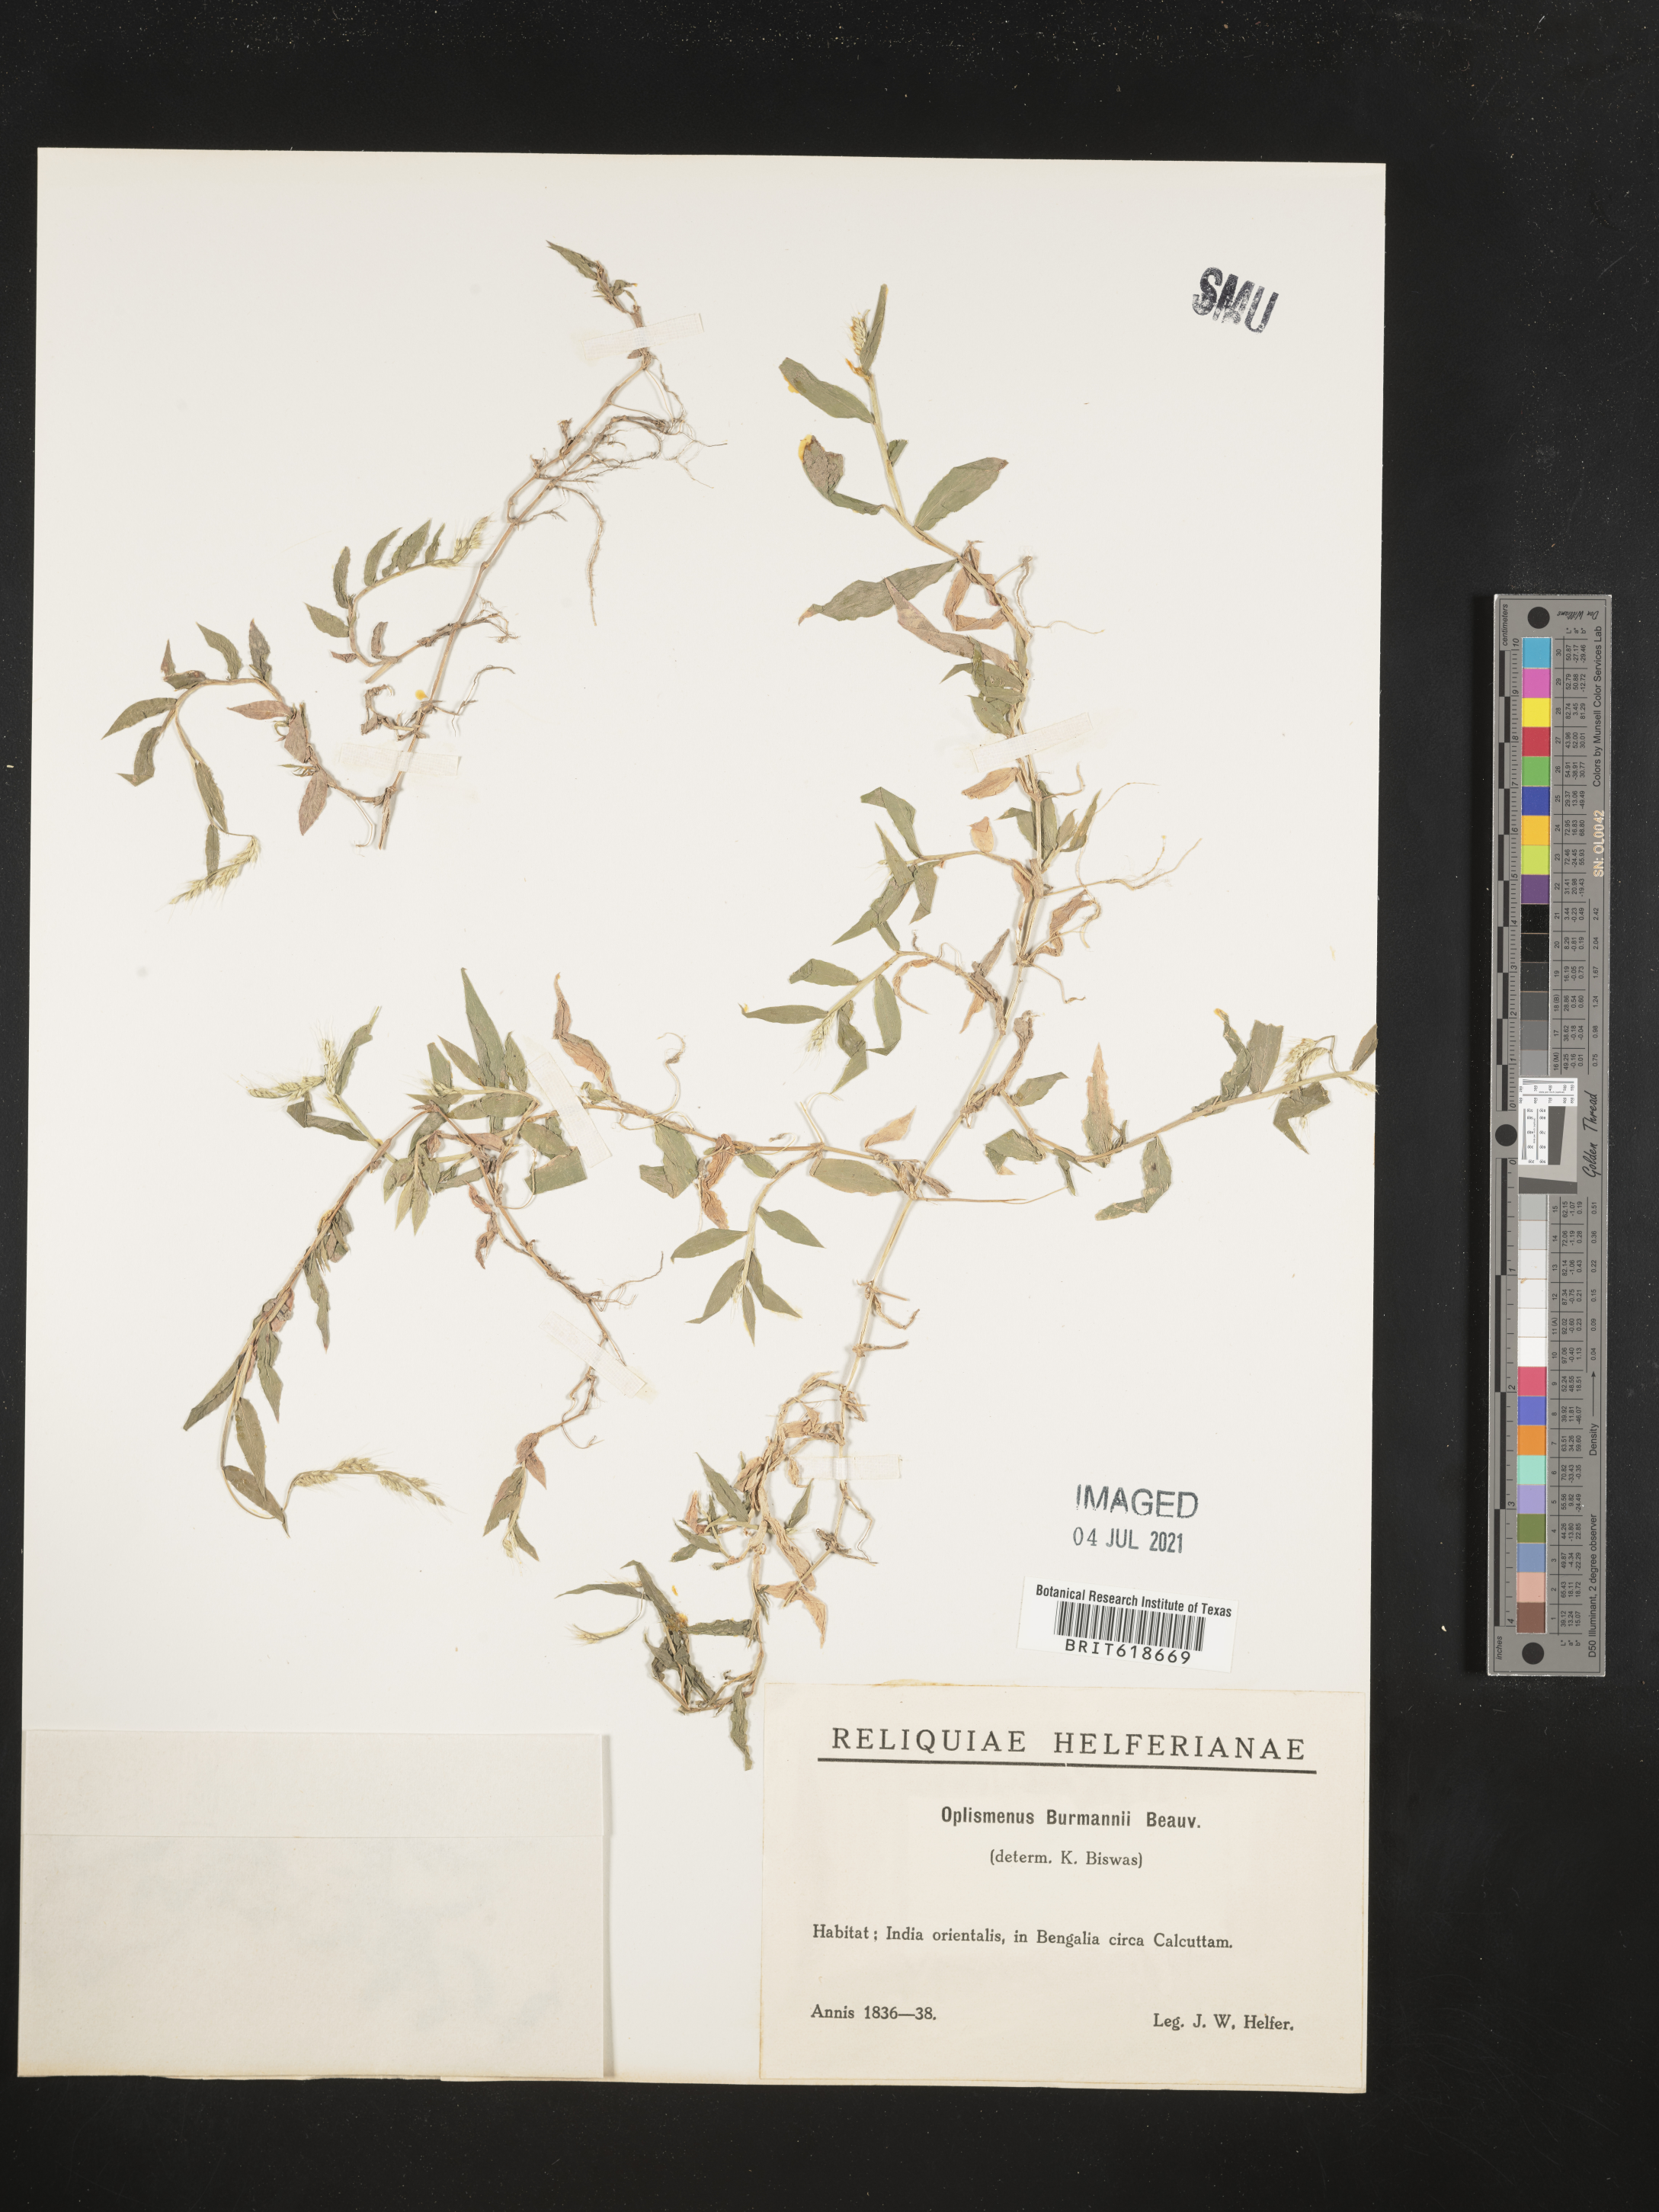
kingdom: Plantae
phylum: Tracheophyta
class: Liliopsida
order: Poales
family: Poaceae
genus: Oplismenus
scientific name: Oplismenus burmanni
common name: Burmann's basketgrass
